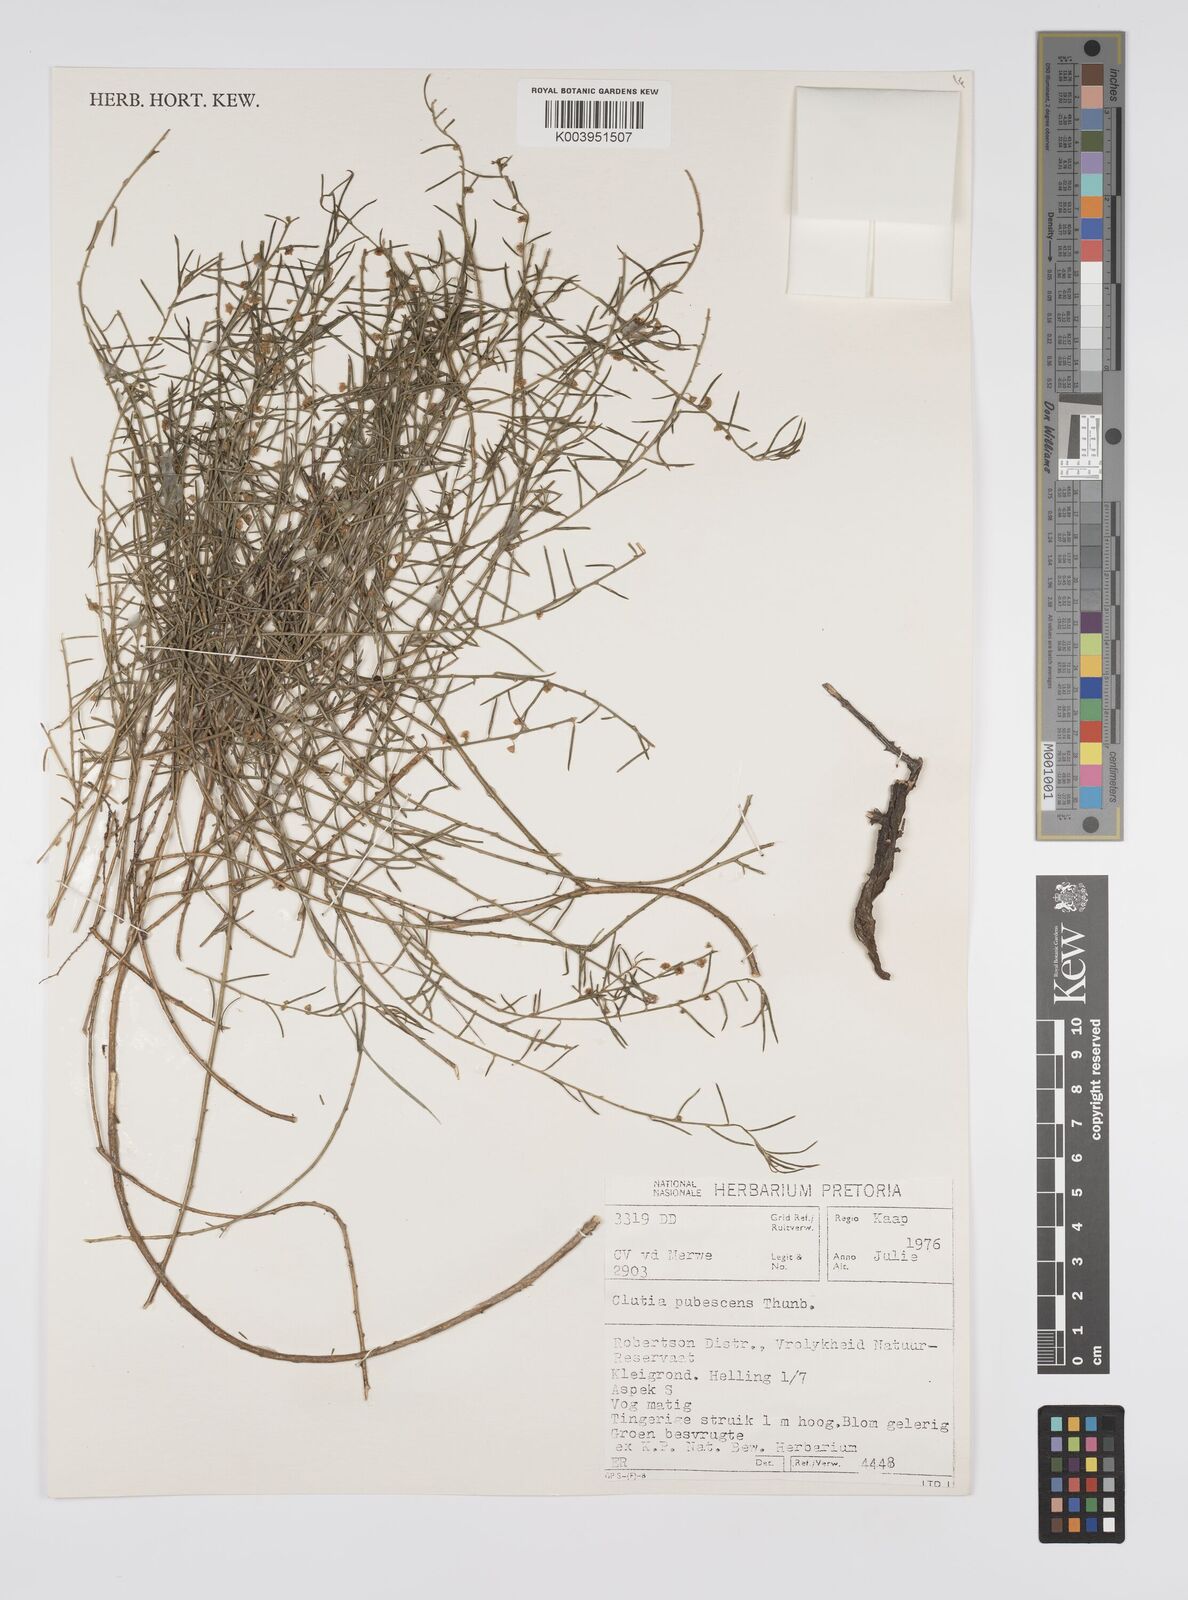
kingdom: Plantae
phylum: Tracheophyta
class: Magnoliopsida
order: Malpighiales
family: Peraceae
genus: Clutia
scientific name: Clutia
